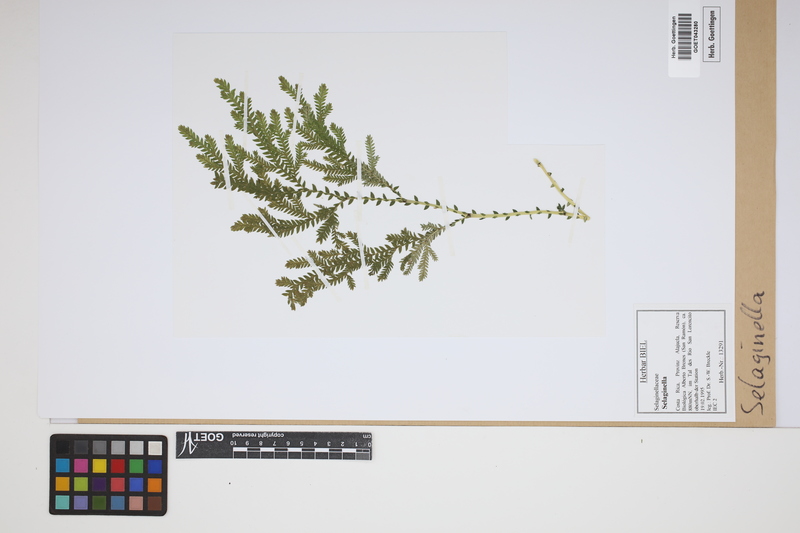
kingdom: Plantae
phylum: Tracheophyta
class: Lycopodiopsida
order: Selaginellales
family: Selaginellaceae
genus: Selaginella
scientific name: Selaginella
